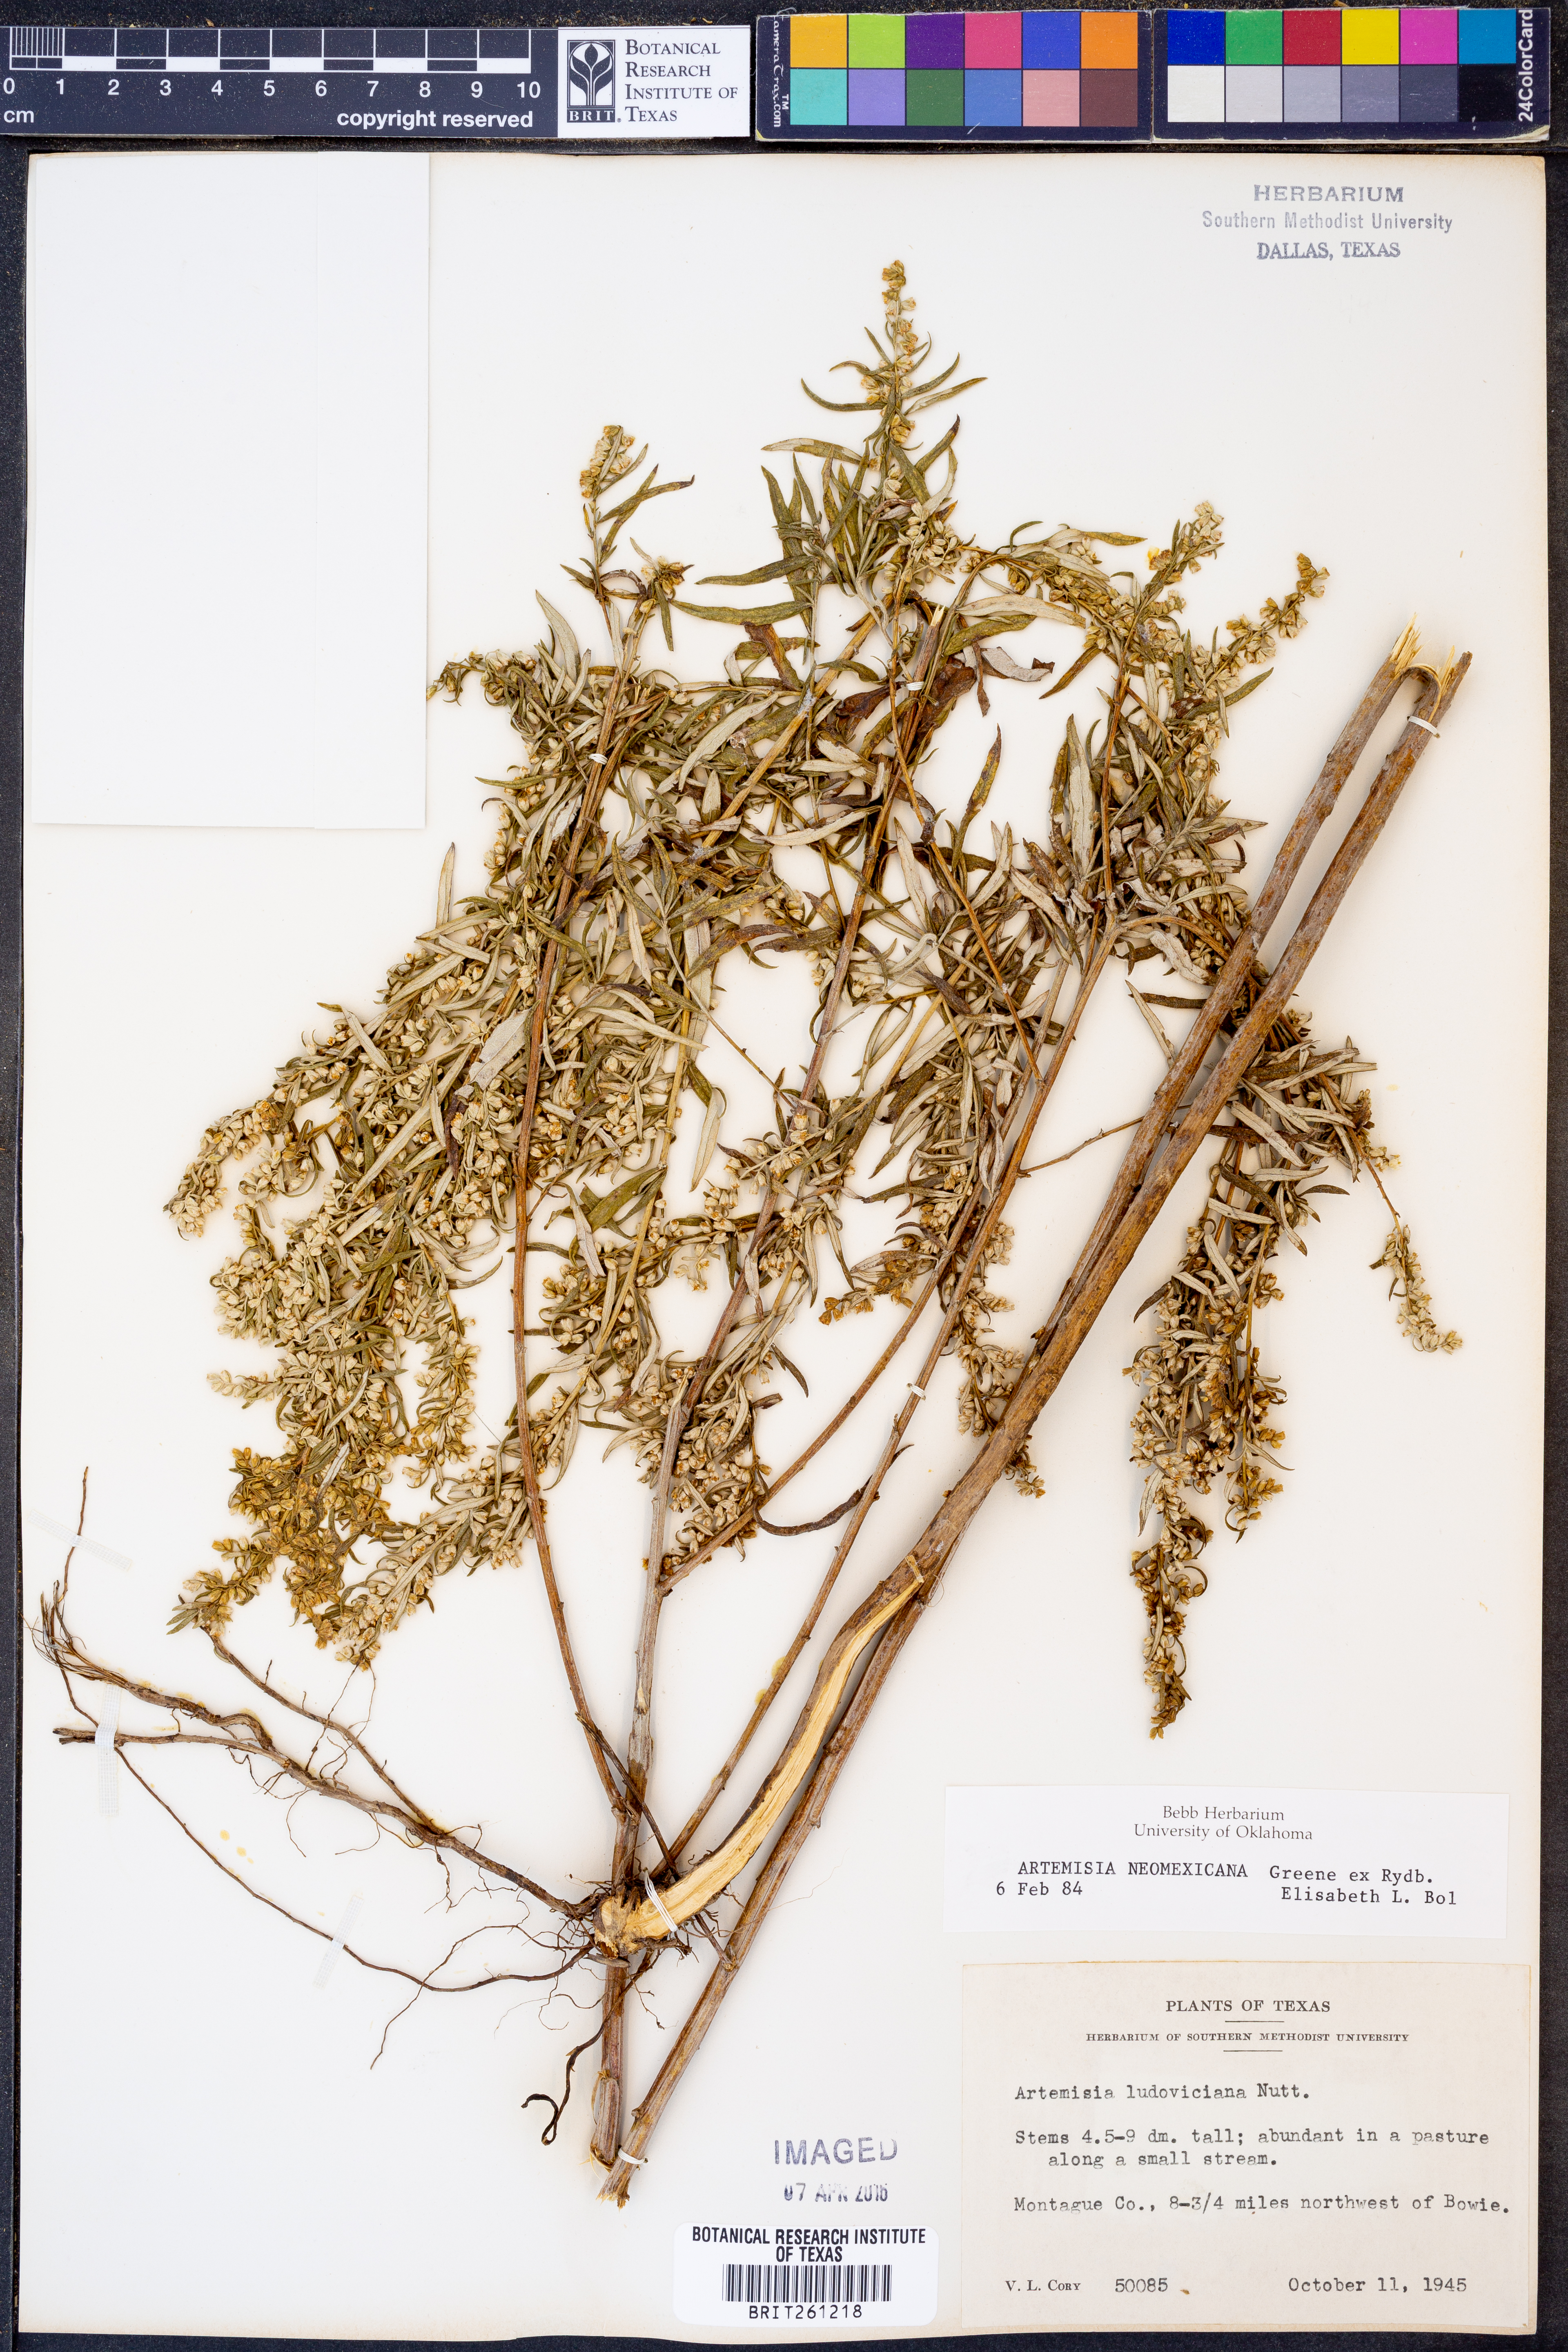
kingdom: Plantae
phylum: Tracheophyta
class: Magnoliopsida
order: Asterales
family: Asteraceae
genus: Artemisia
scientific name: Artemisia ludoviciana
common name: Western mugwort
